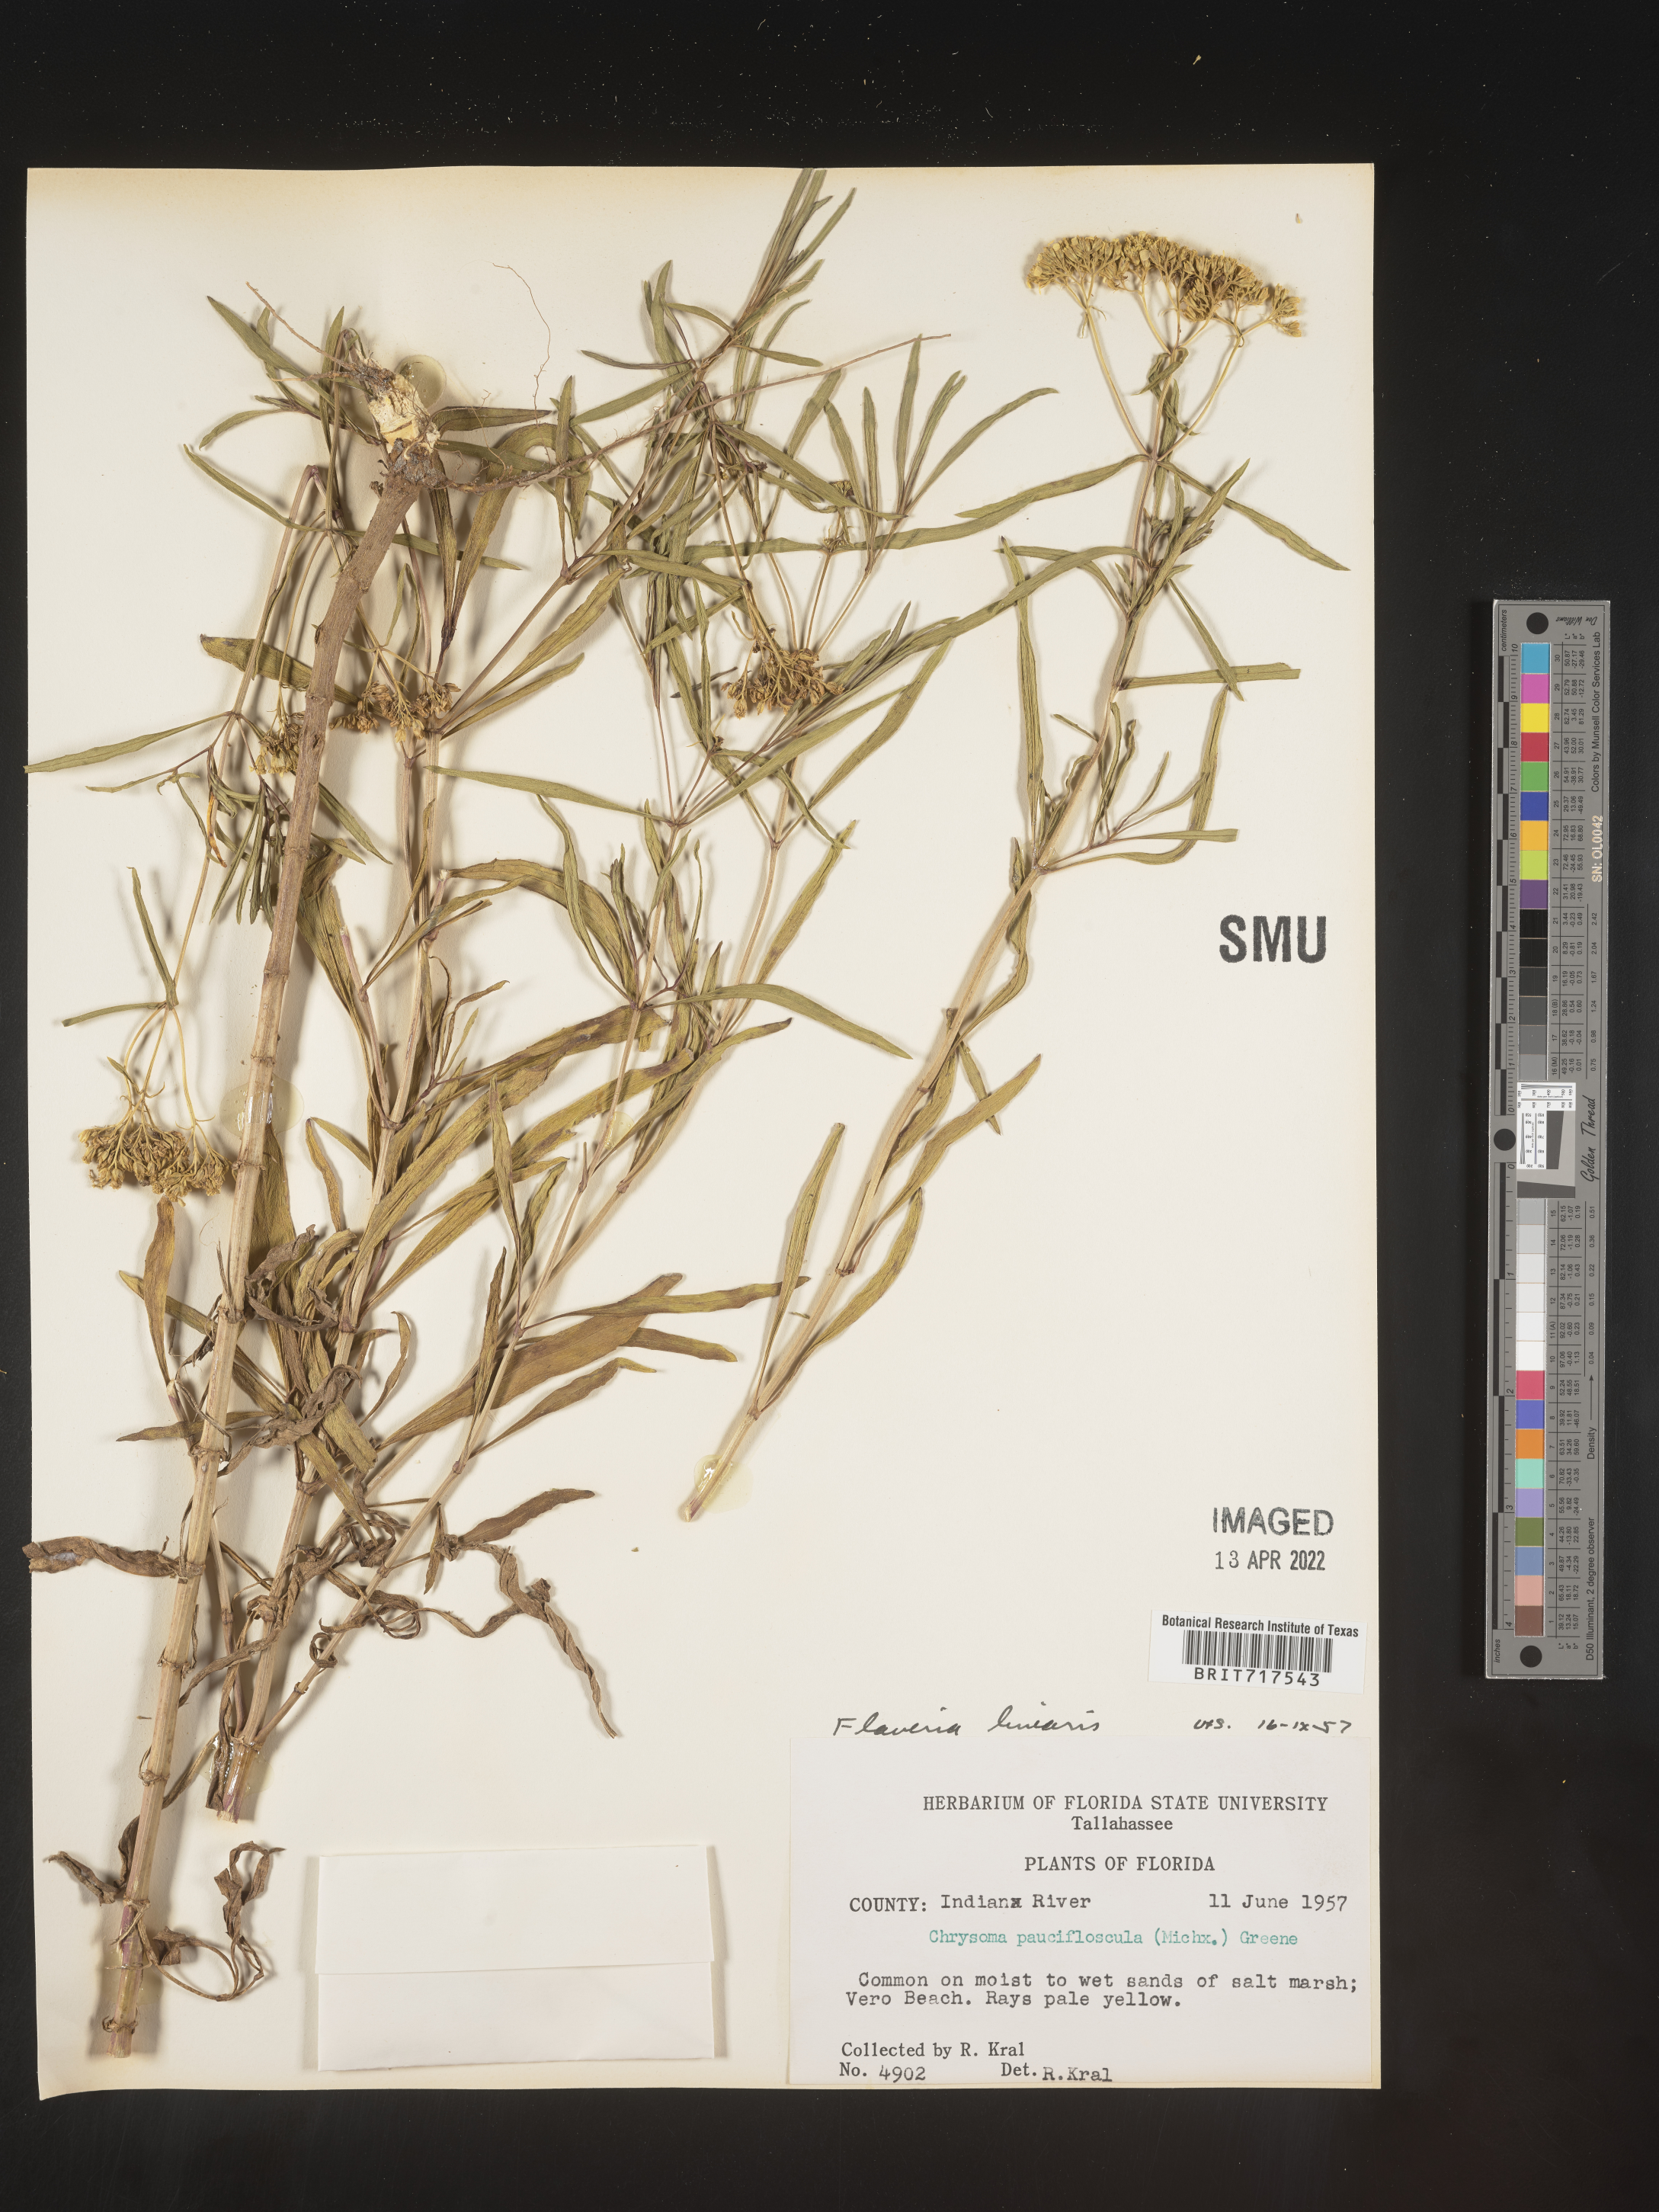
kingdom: Plantae
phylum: Tracheophyta
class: Magnoliopsida
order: Asterales
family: Asteraceae
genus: Flaveria
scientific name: Flaveria linearis
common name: Yellowtop
